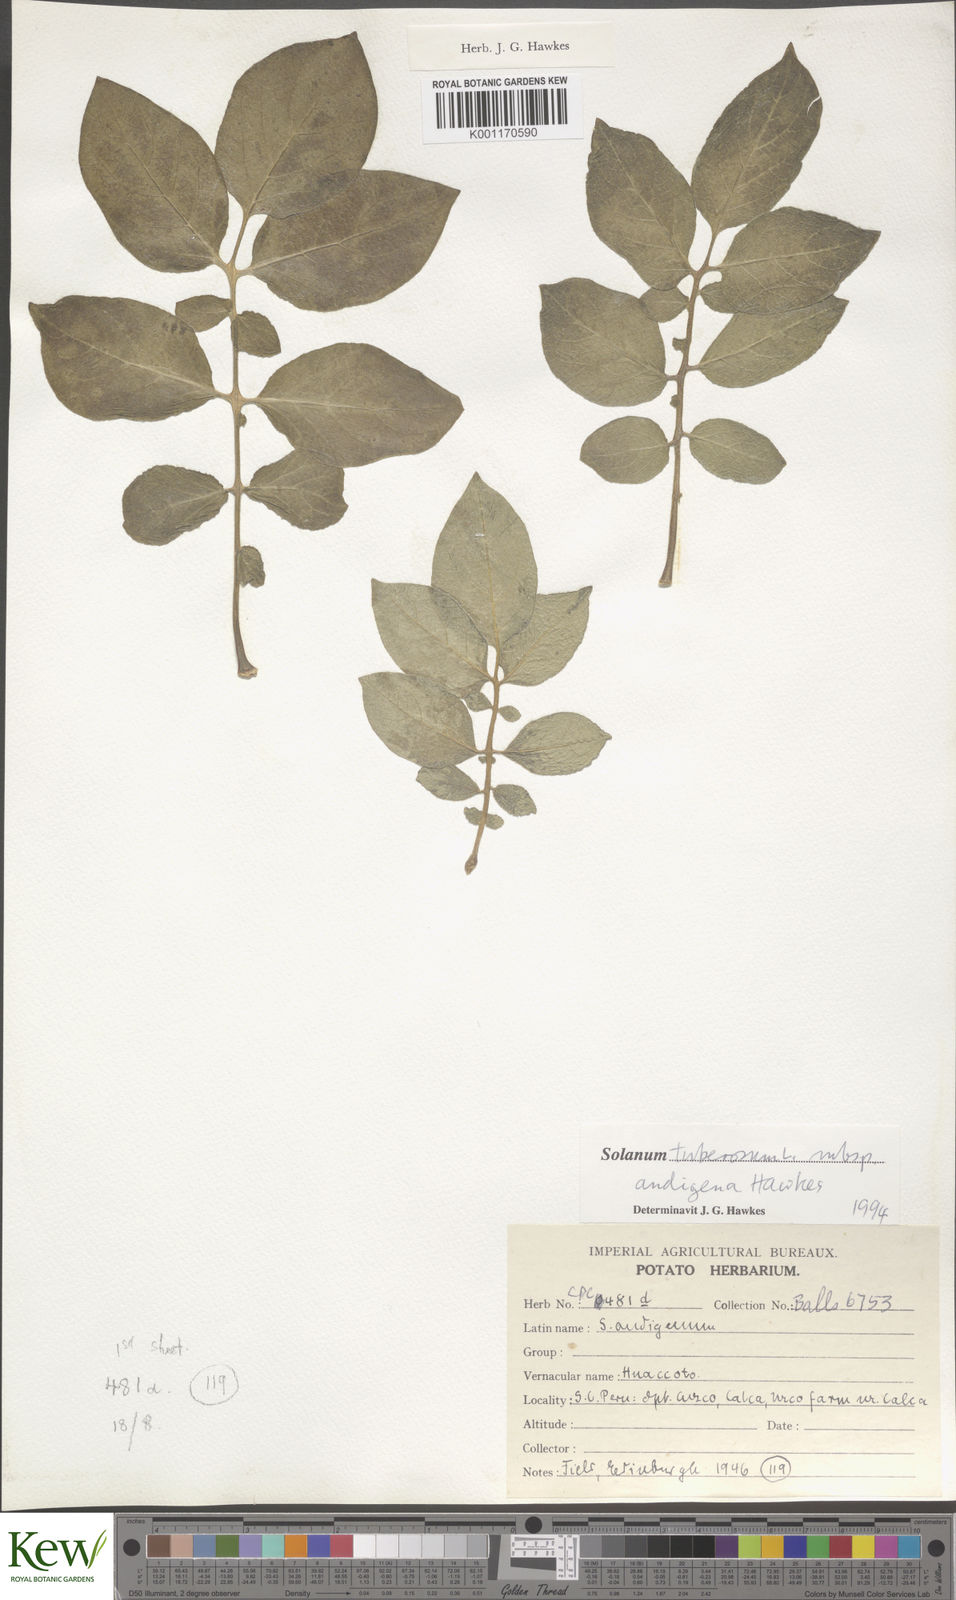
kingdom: Plantae
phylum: Tracheophyta
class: Magnoliopsida
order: Solanales
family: Solanaceae
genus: Solanum
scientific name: Solanum tuberosum
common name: Potato
